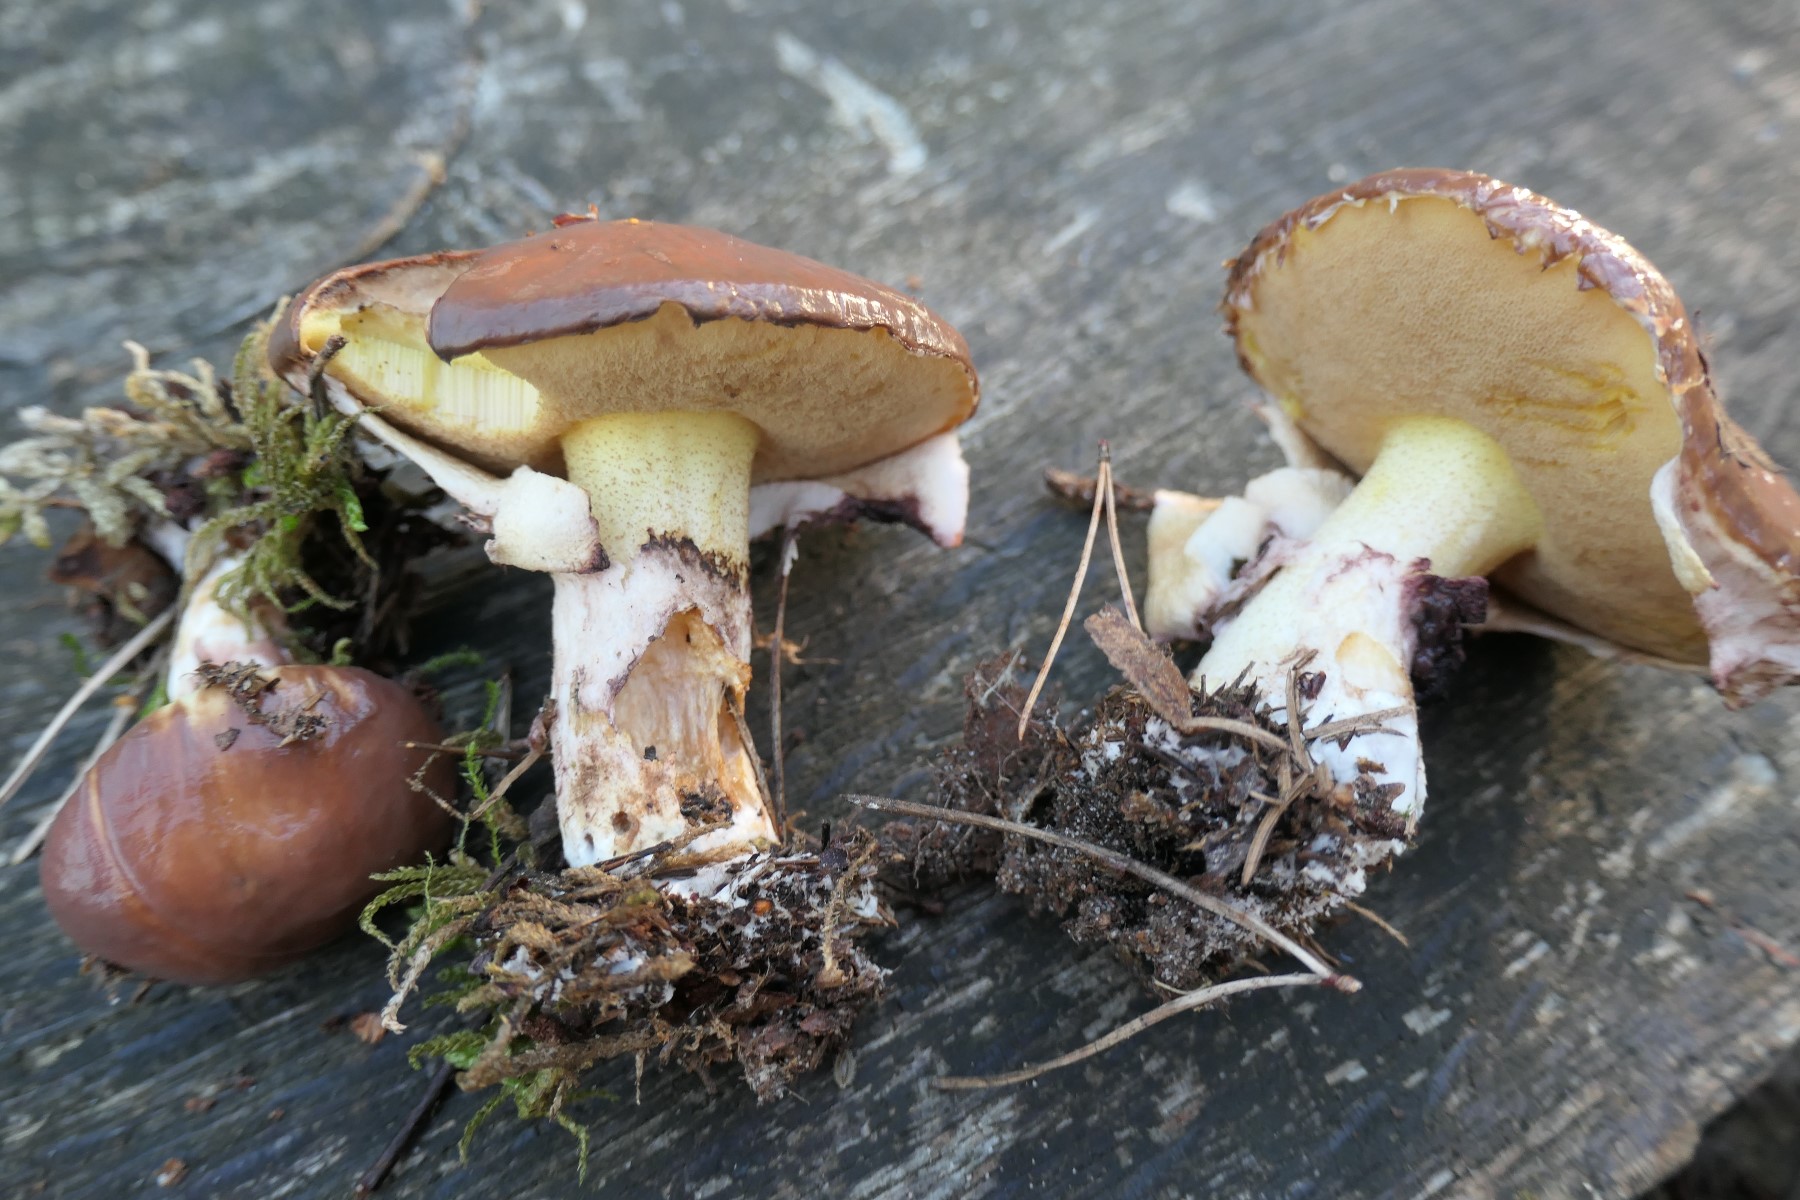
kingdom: Fungi
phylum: Basidiomycota
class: Agaricomycetes
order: Boletales
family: Suillaceae
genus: Suillus
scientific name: Suillus luteus
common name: brungul slimrørhat
